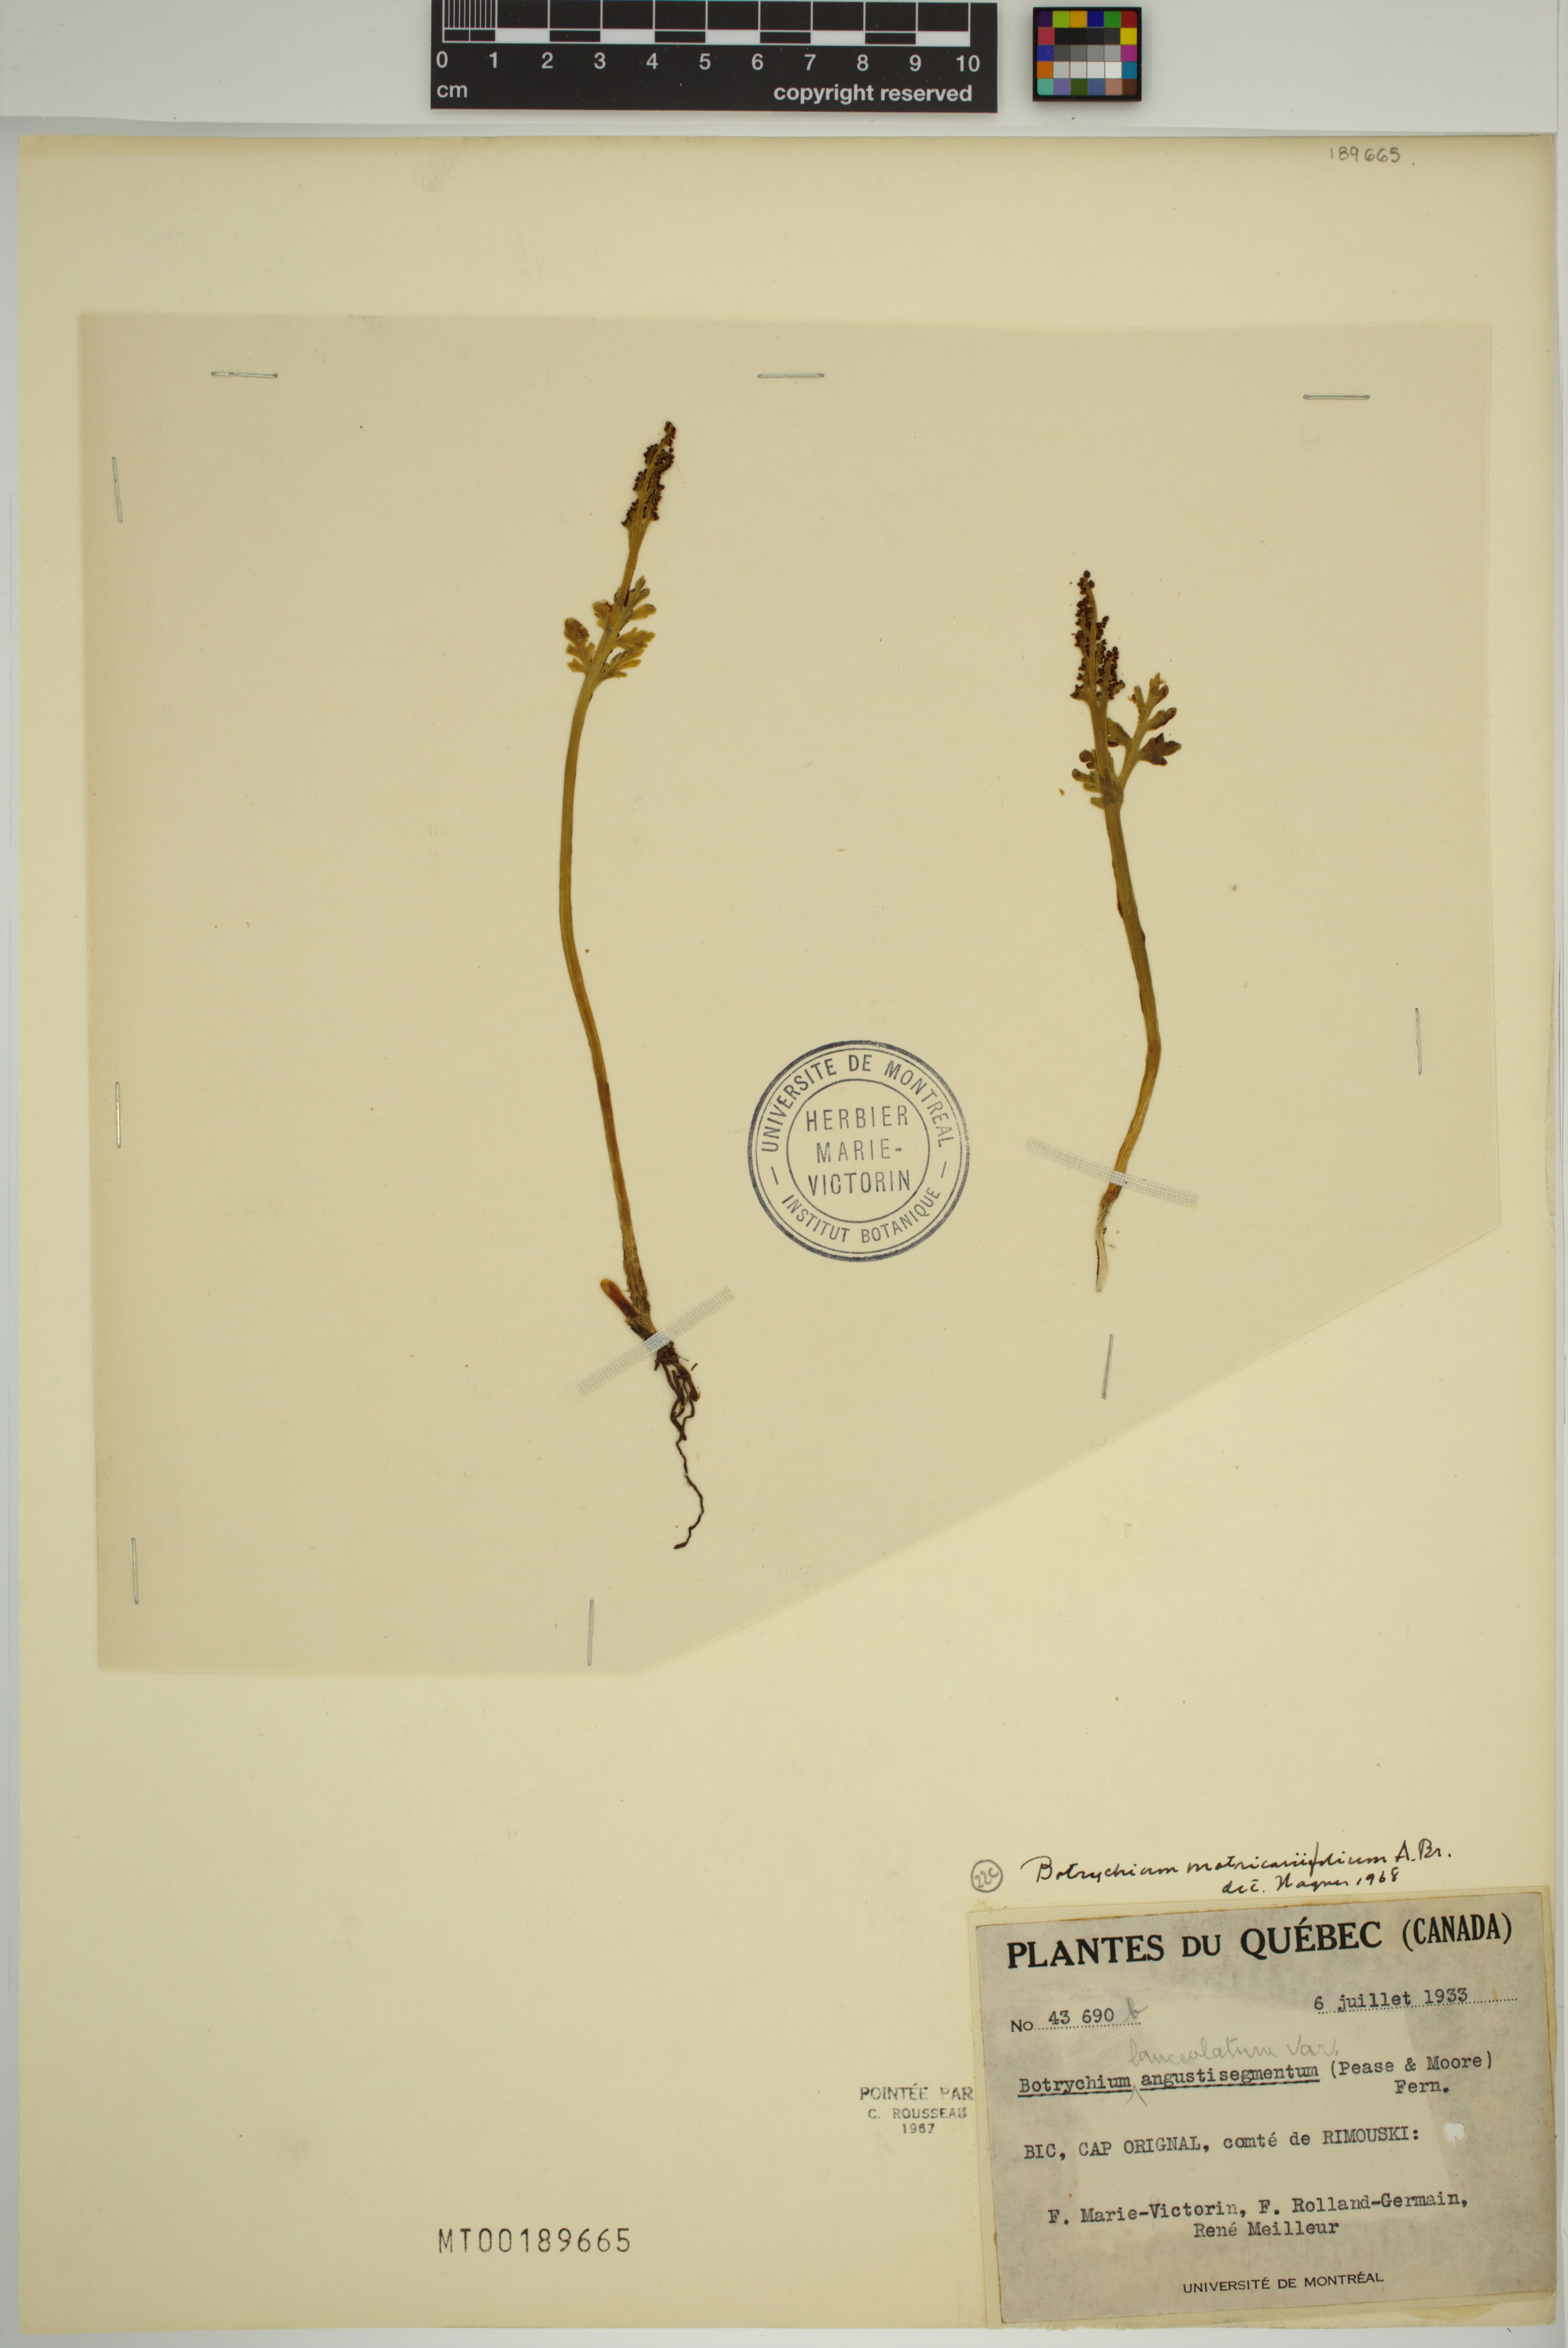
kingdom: Plantae
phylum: Tracheophyta
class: Polypodiopsida
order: Ophioglossales
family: Ophioglossaceae
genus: Botrychium
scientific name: Botrychium matricariifolium
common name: Branched moonwort
